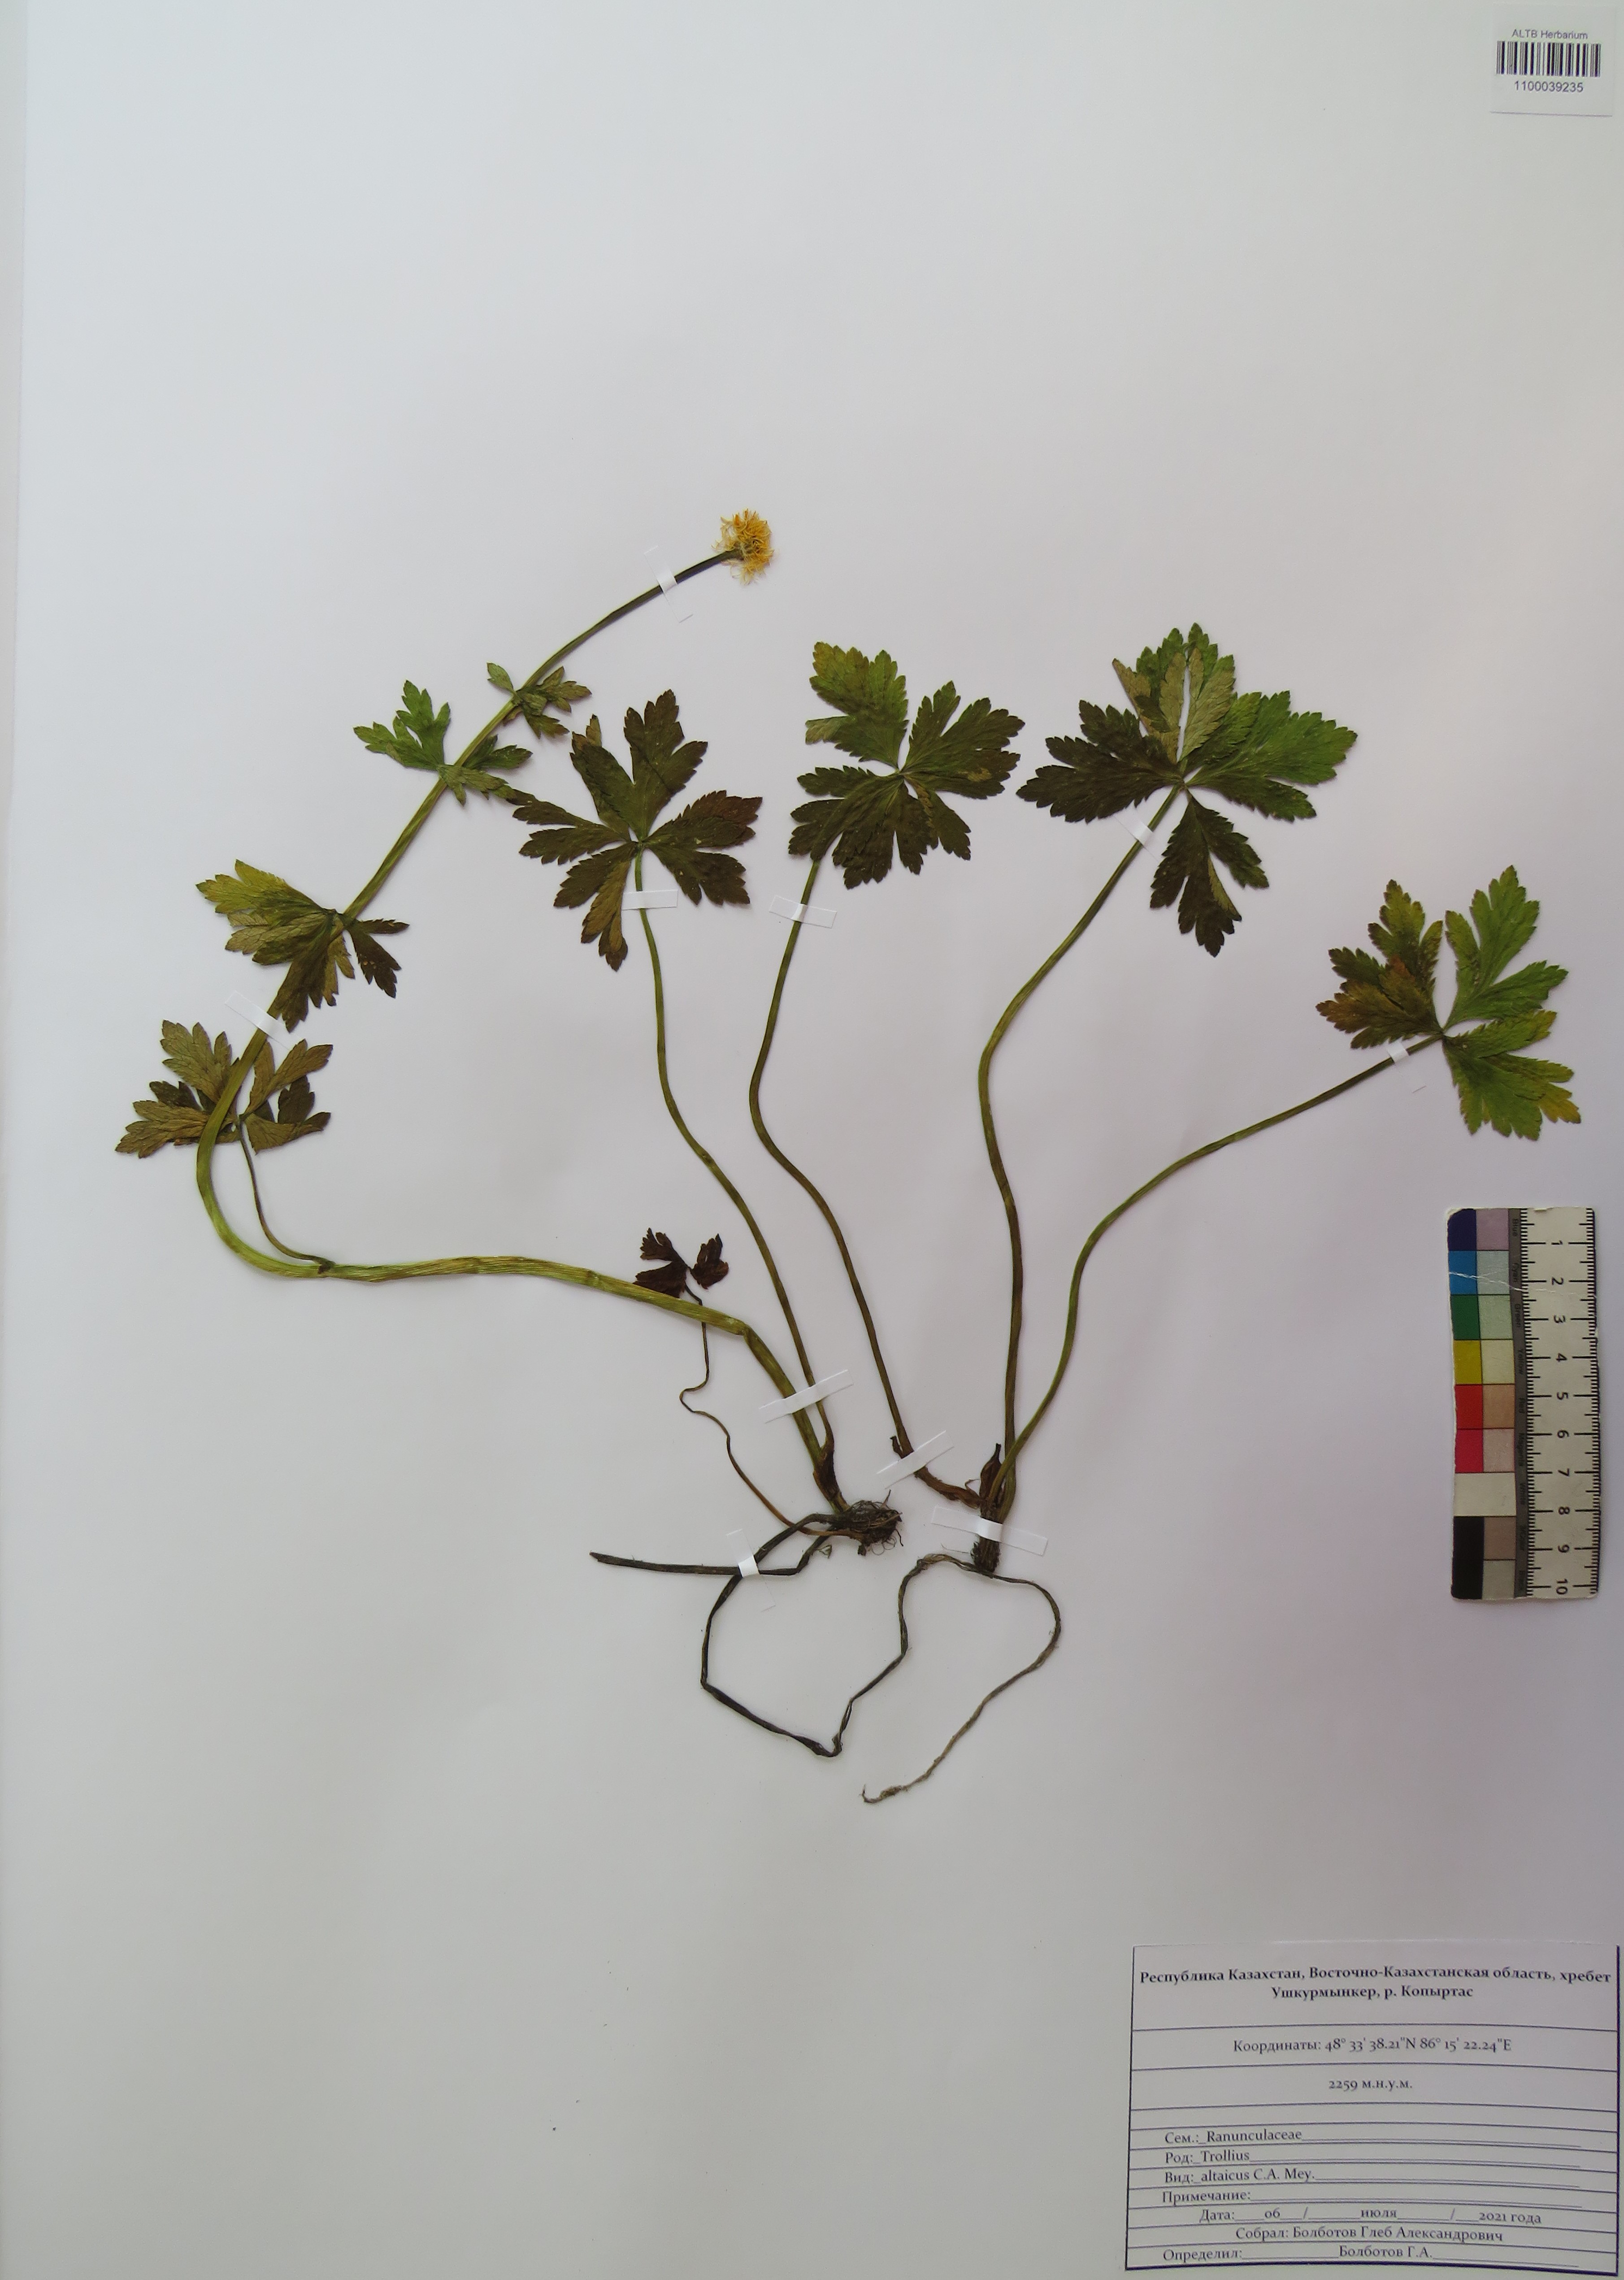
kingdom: Plantae
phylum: Tracheophyta
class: Magnoliopsida
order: Ranunculales
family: Ranunculaceae
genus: Trollius
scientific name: Trollius altaicus
